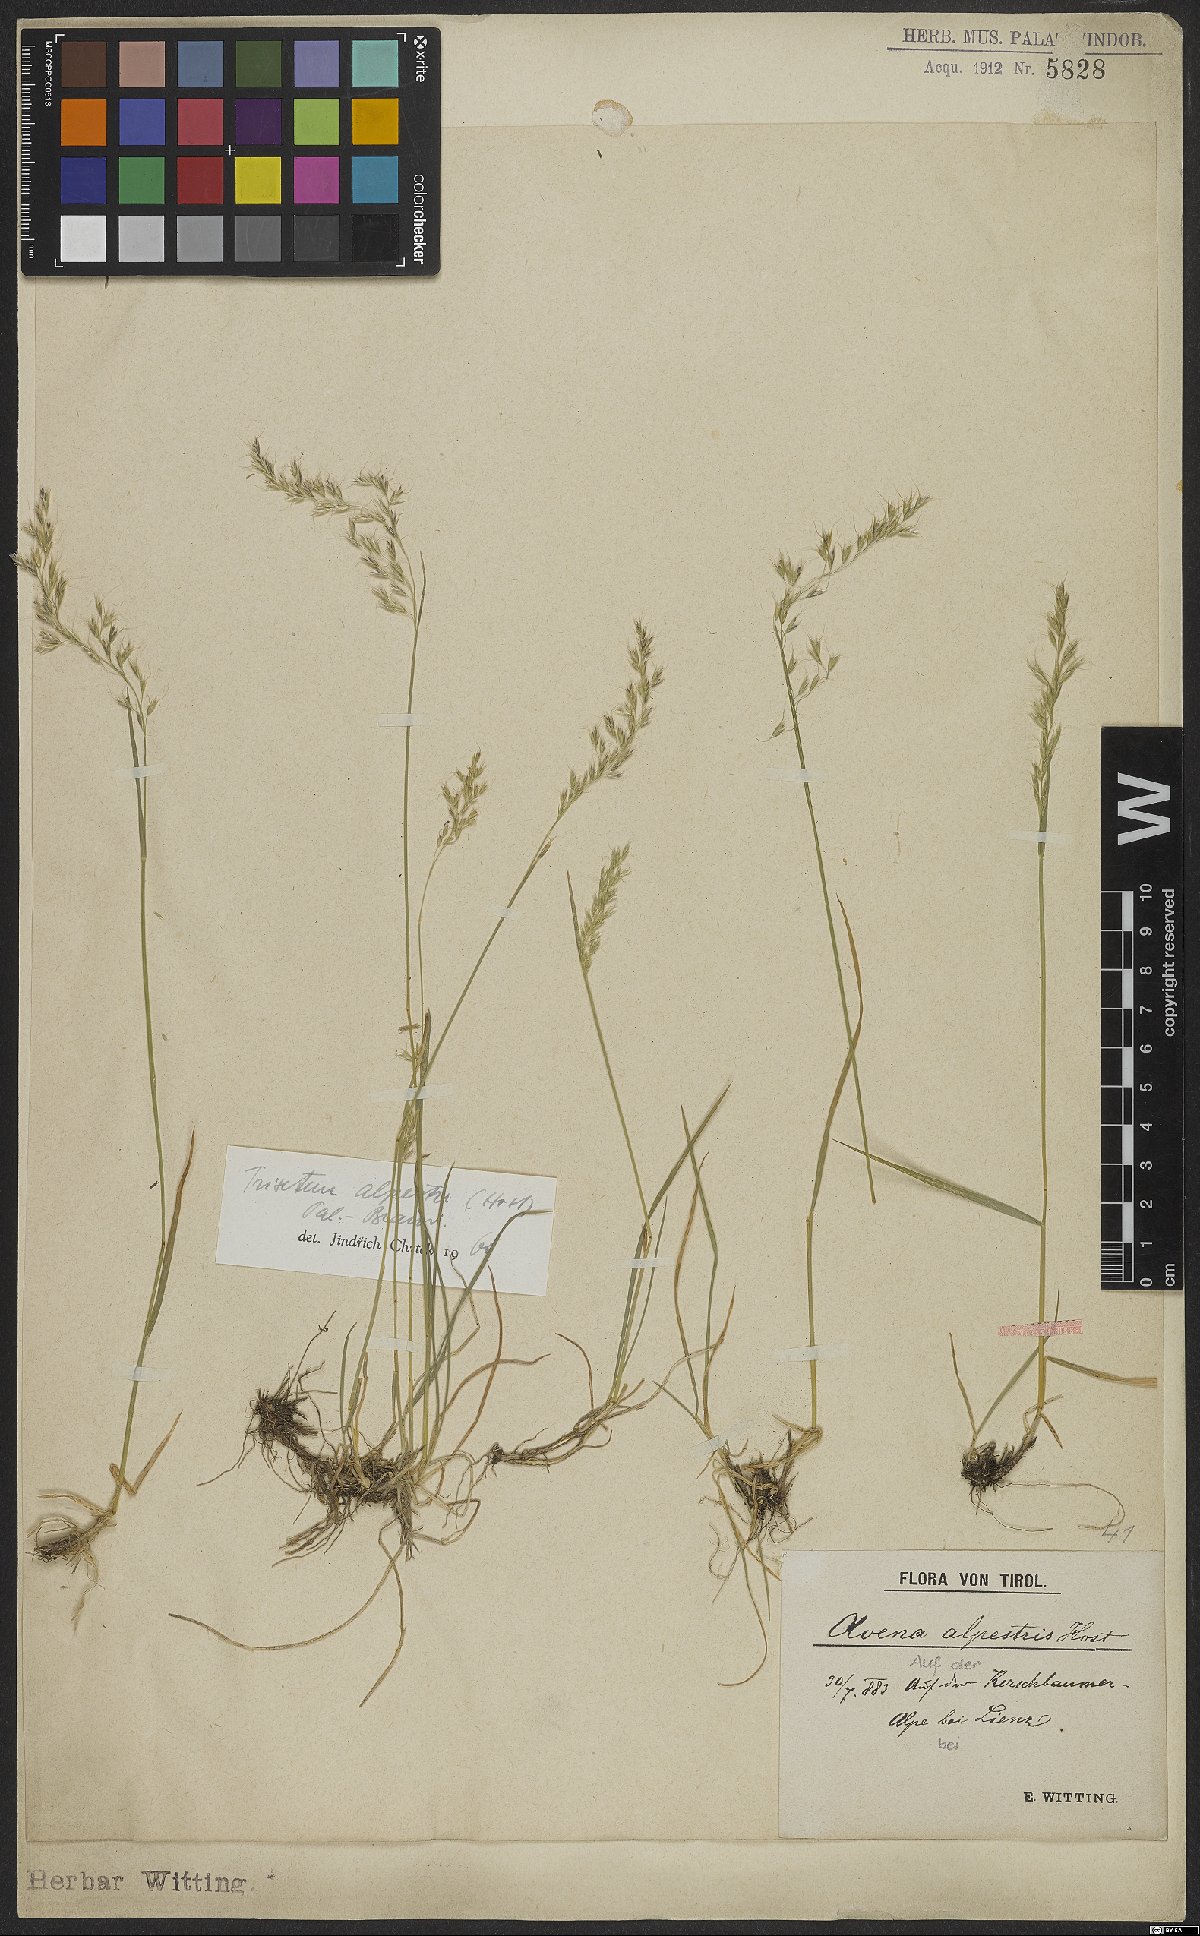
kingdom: Plantae
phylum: Tracheophyta
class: Liliopsida
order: Poales
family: Poaceae
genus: Trisetum
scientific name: Trisetum alpestre
